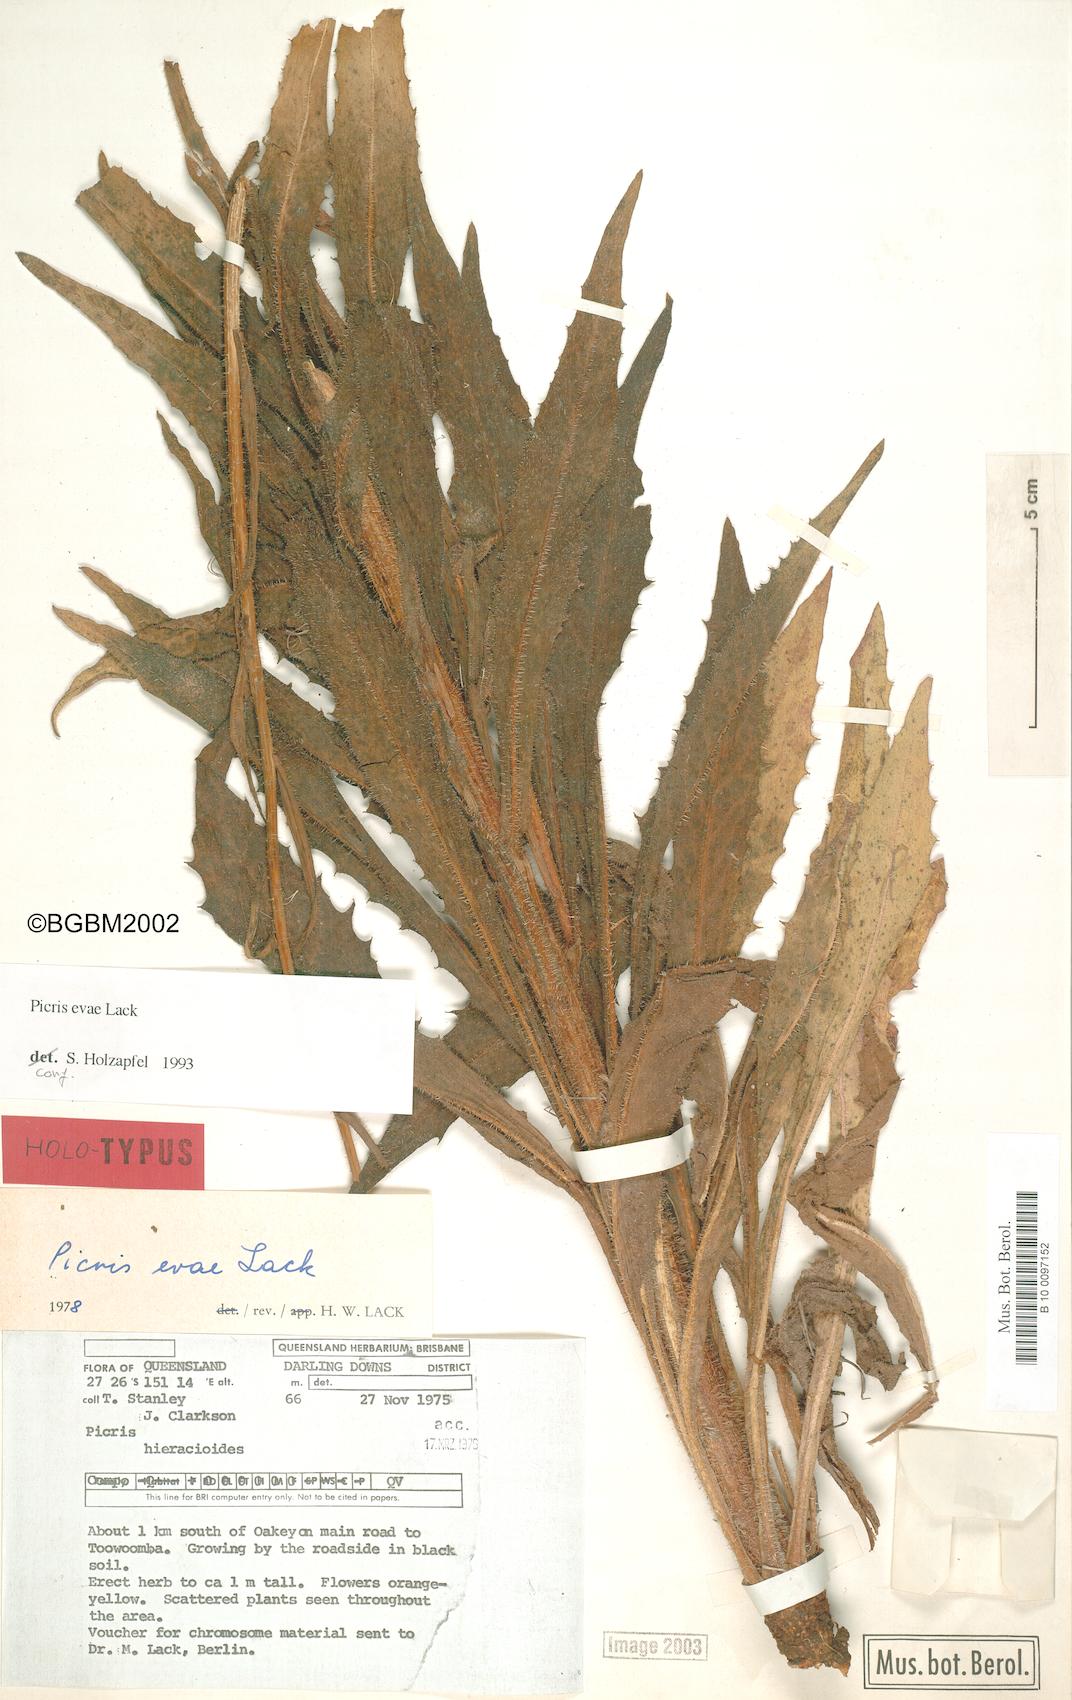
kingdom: Plantae
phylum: Tracheophyta
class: Magnoliopsida
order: Asterales
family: Asteraceae
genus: Picris
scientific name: Picris evae
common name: Hawkweed
